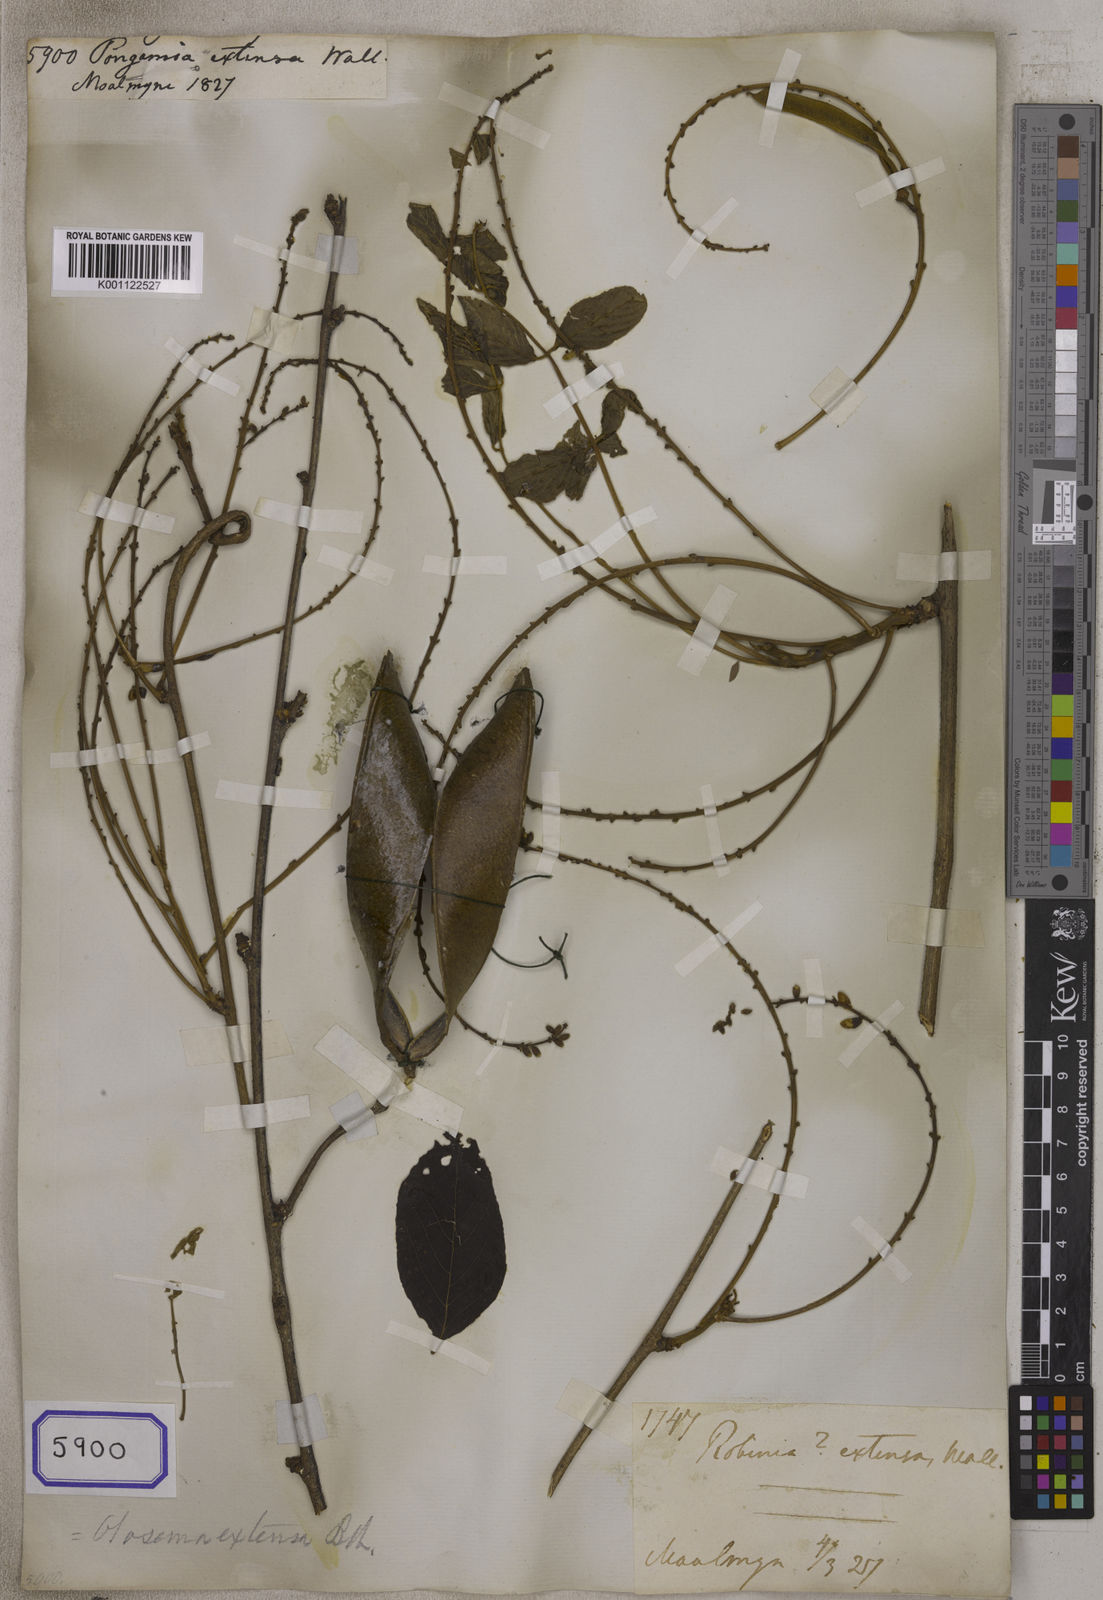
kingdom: Plantae
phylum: Tracheophyta
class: Magnoliopsida
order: Fabales
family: Fabaceae
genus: Pongamia
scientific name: Pongamia
